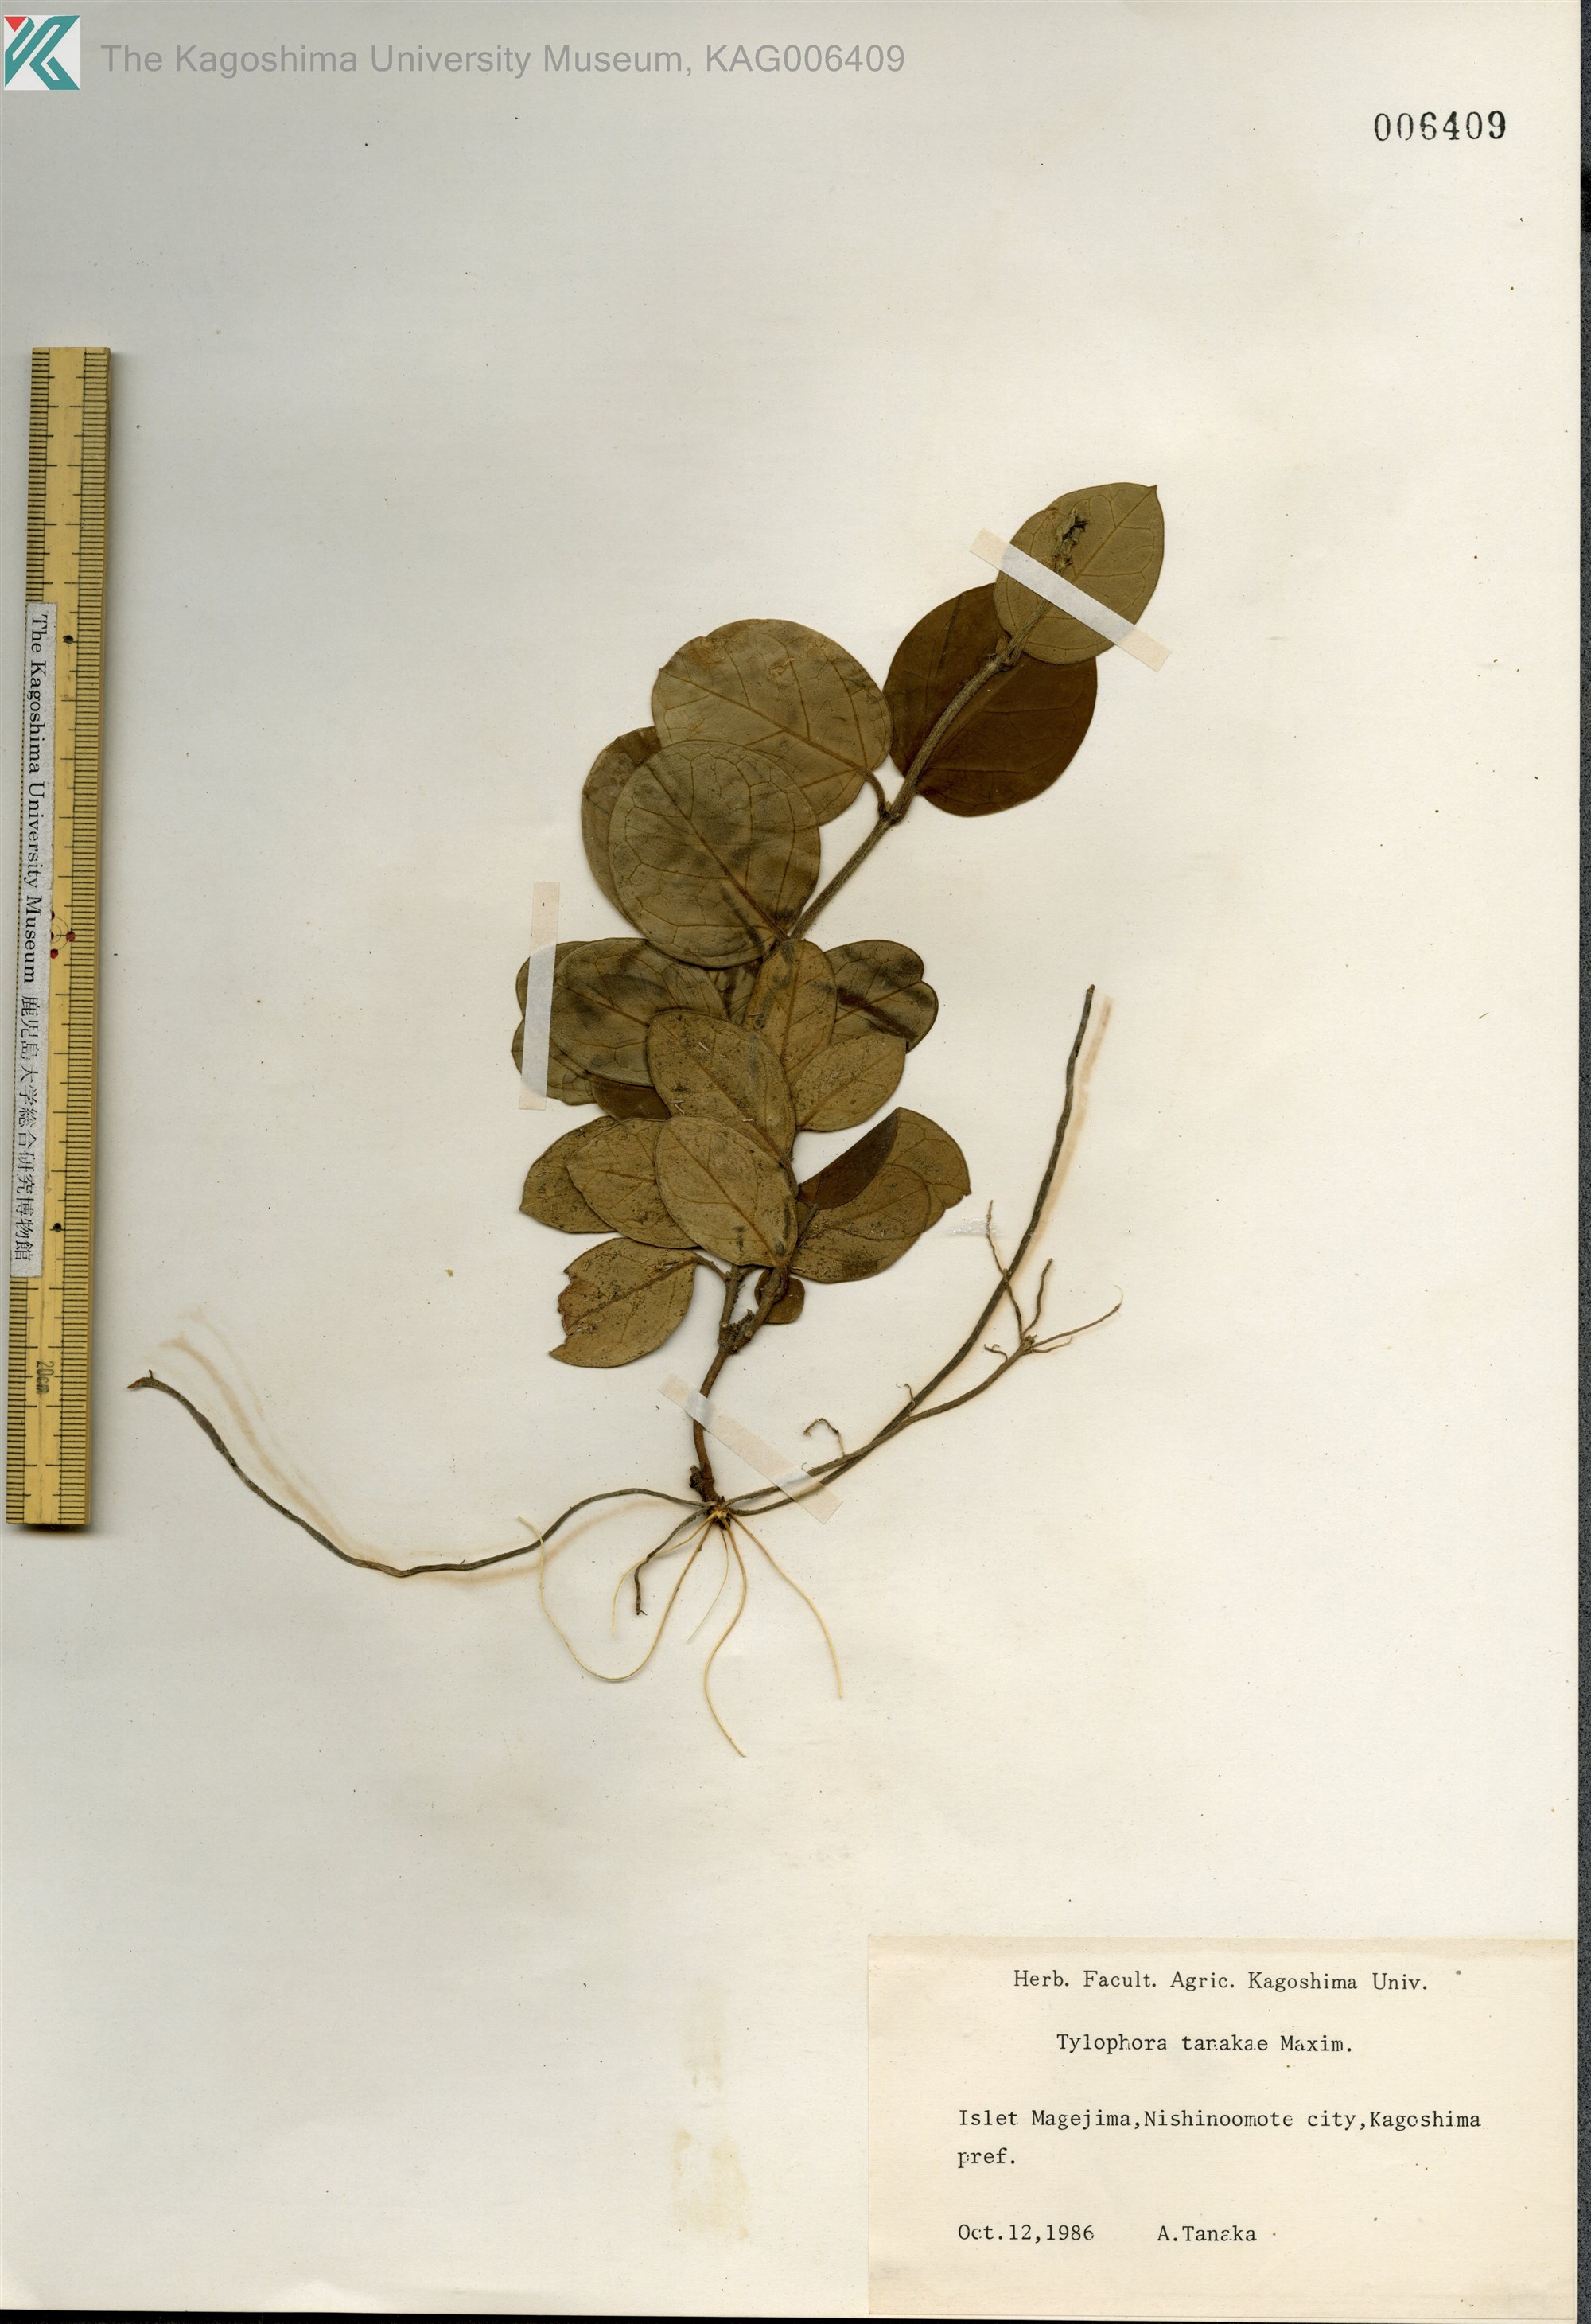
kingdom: Plantae
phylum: Tracheophyta
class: Magnoliopsida
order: Gentianales
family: Apocynaceae
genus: Vincetoxicum
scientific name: Vincetoxicum Tylophora tanakae
